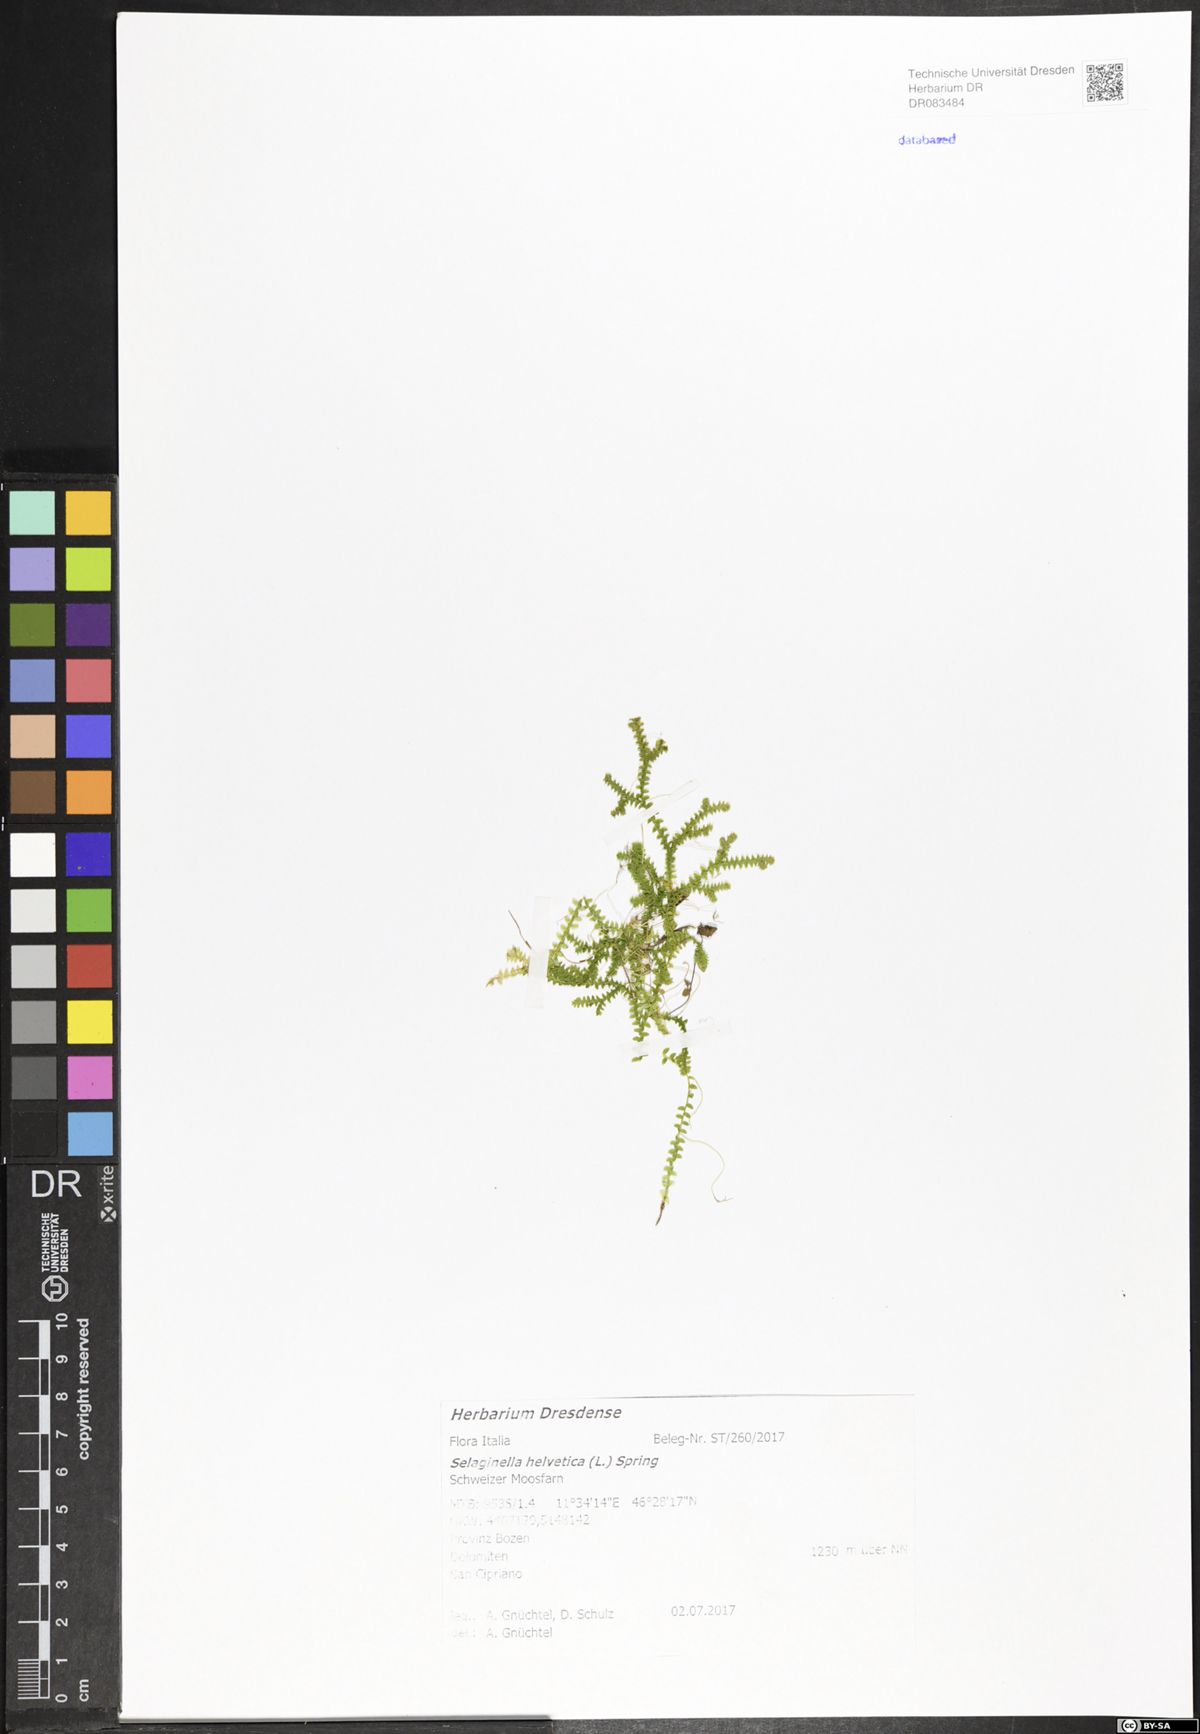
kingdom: Plantae
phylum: Tracheophyta
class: Lycopodiopsida
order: Selaginellales
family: Selaginellaceae
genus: Selaginella
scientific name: Selaginella helvetica
